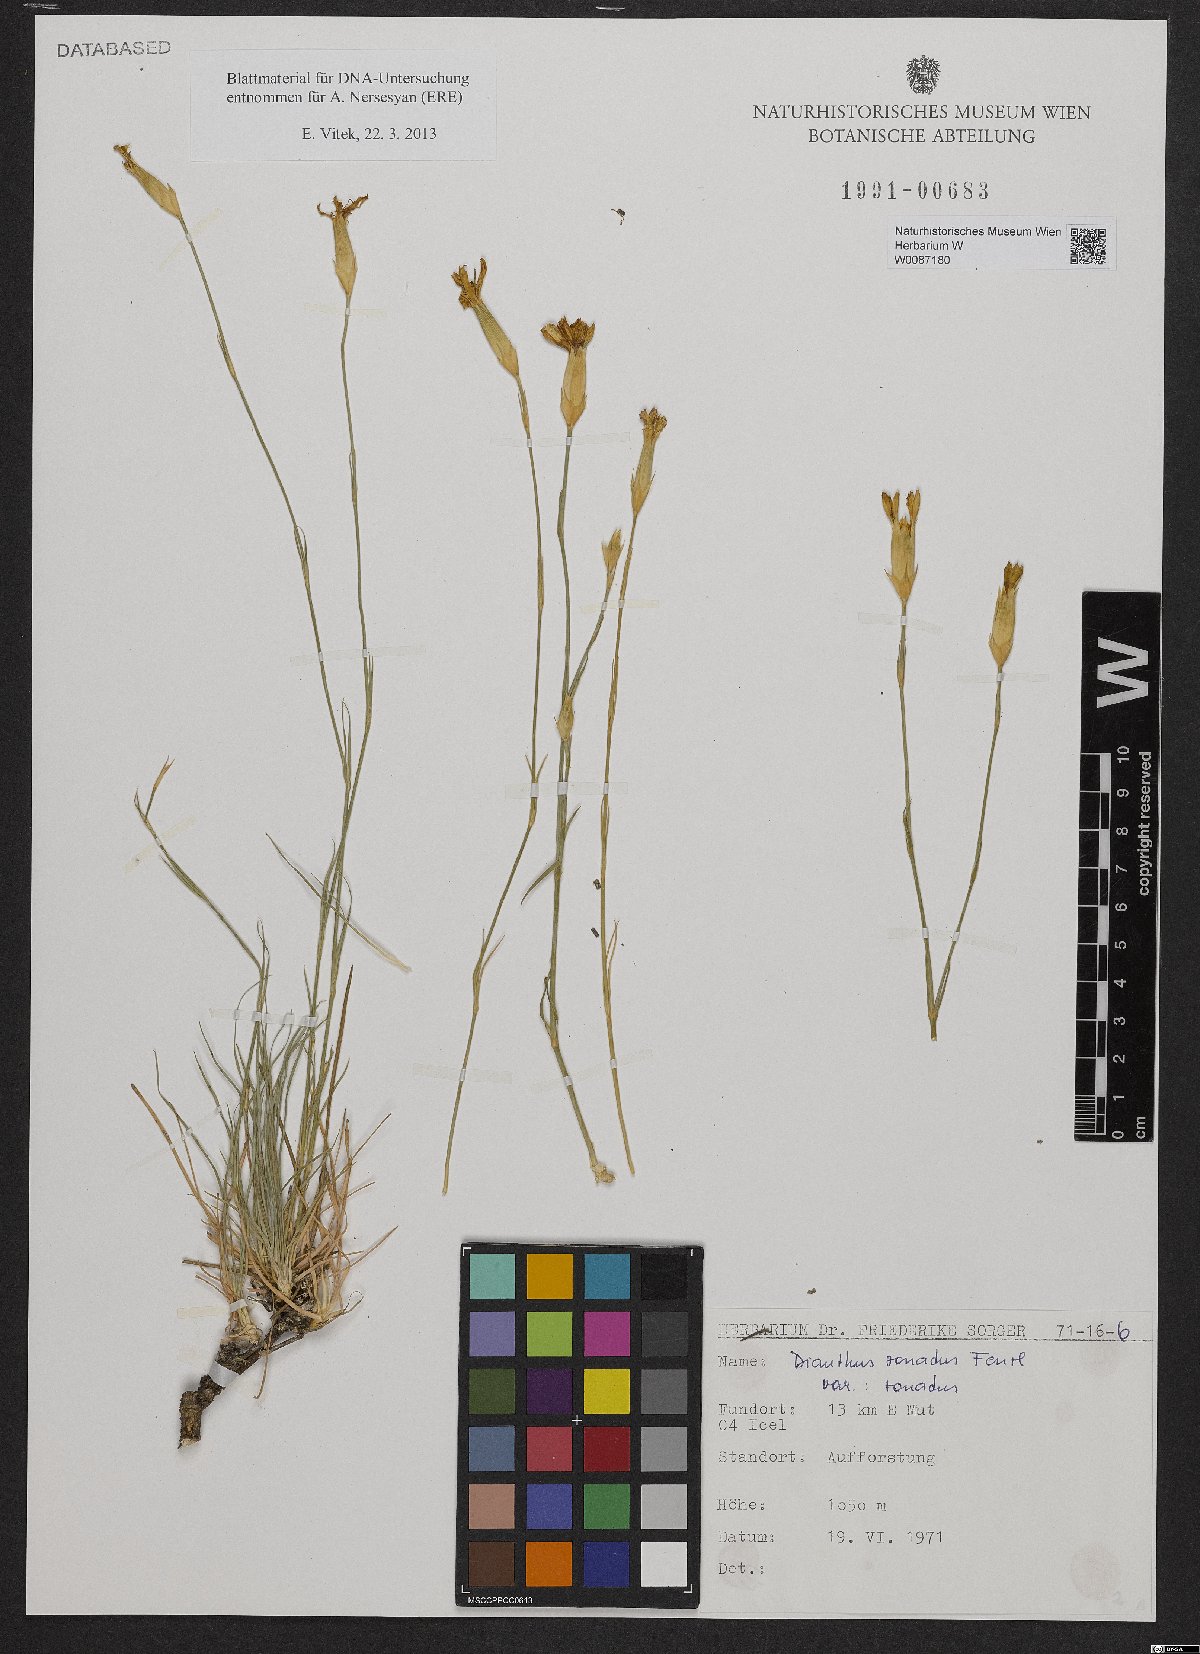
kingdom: Plantae
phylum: Tracheophyta
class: Magnoliopsida
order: Caryophyllales
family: Caryophyllaceae
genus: Dianthus
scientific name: Dianthus zonatus
